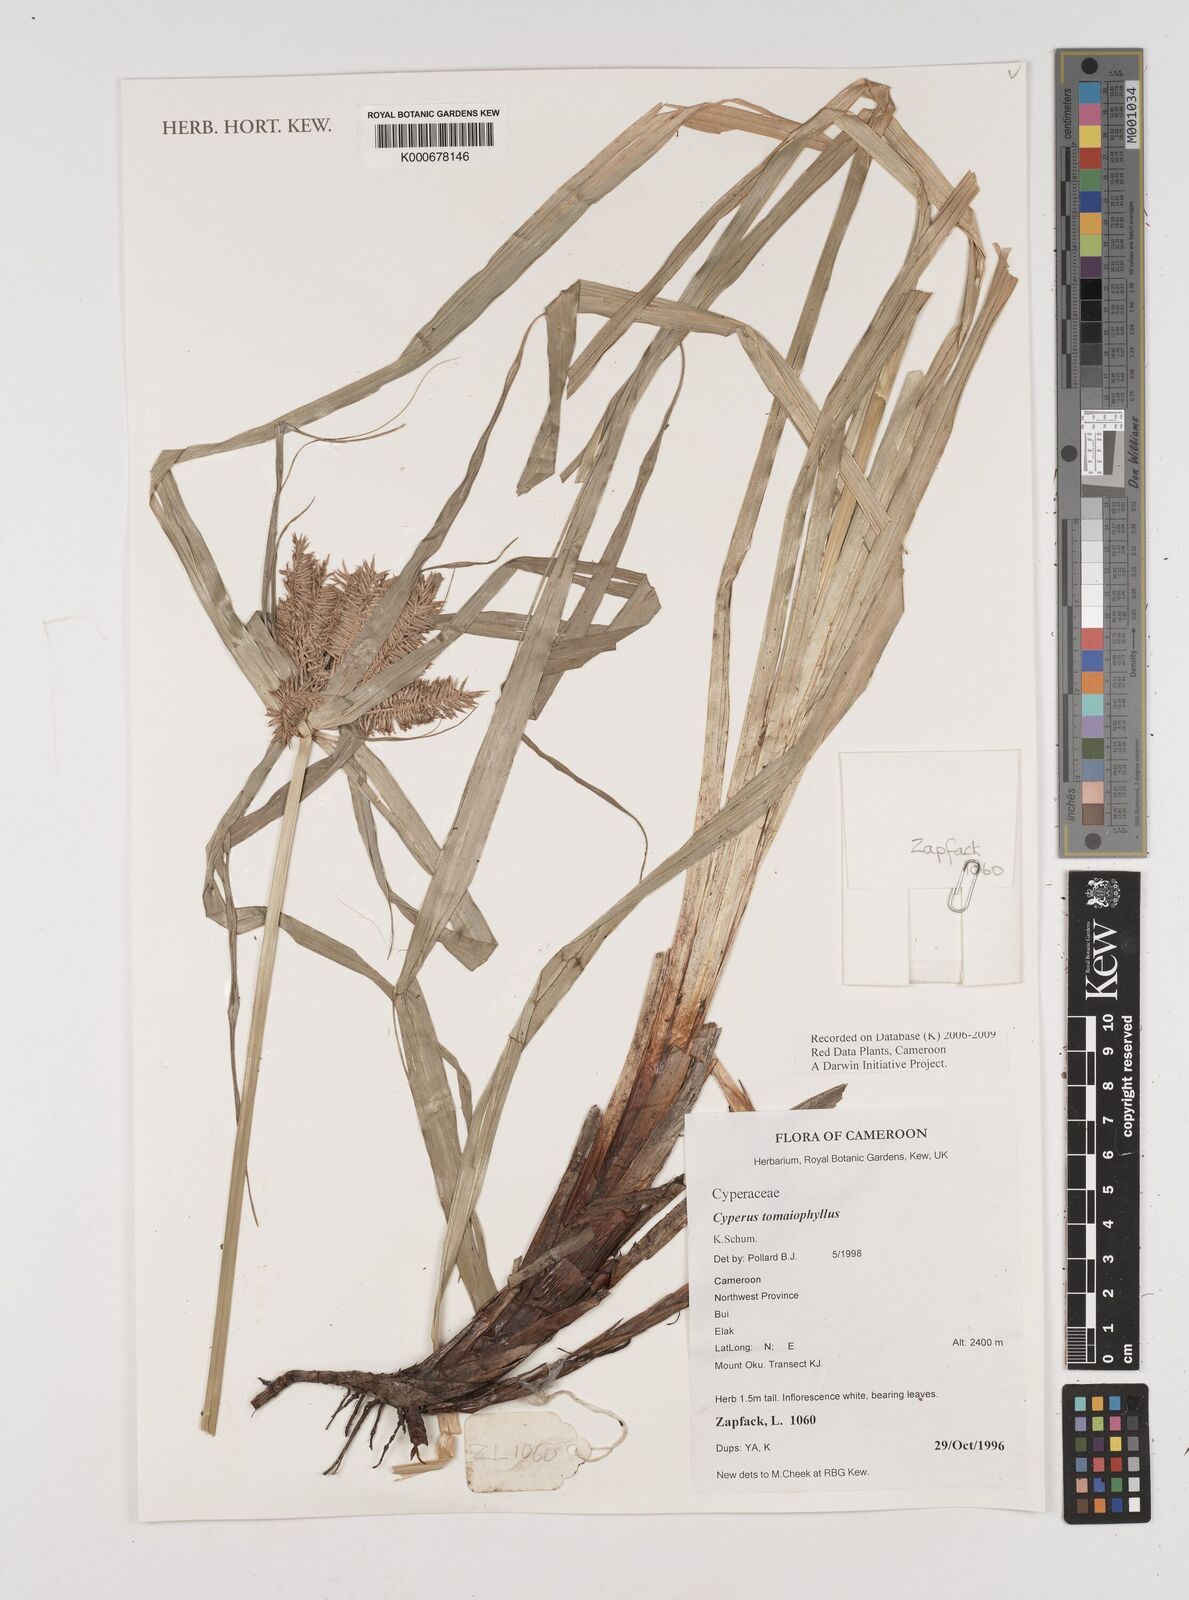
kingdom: Plantae
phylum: Tracheophyta
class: Liliopsida
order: Poales
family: Cyperaceae
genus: Cyperus
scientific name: Cyperus tomaiophyllus
